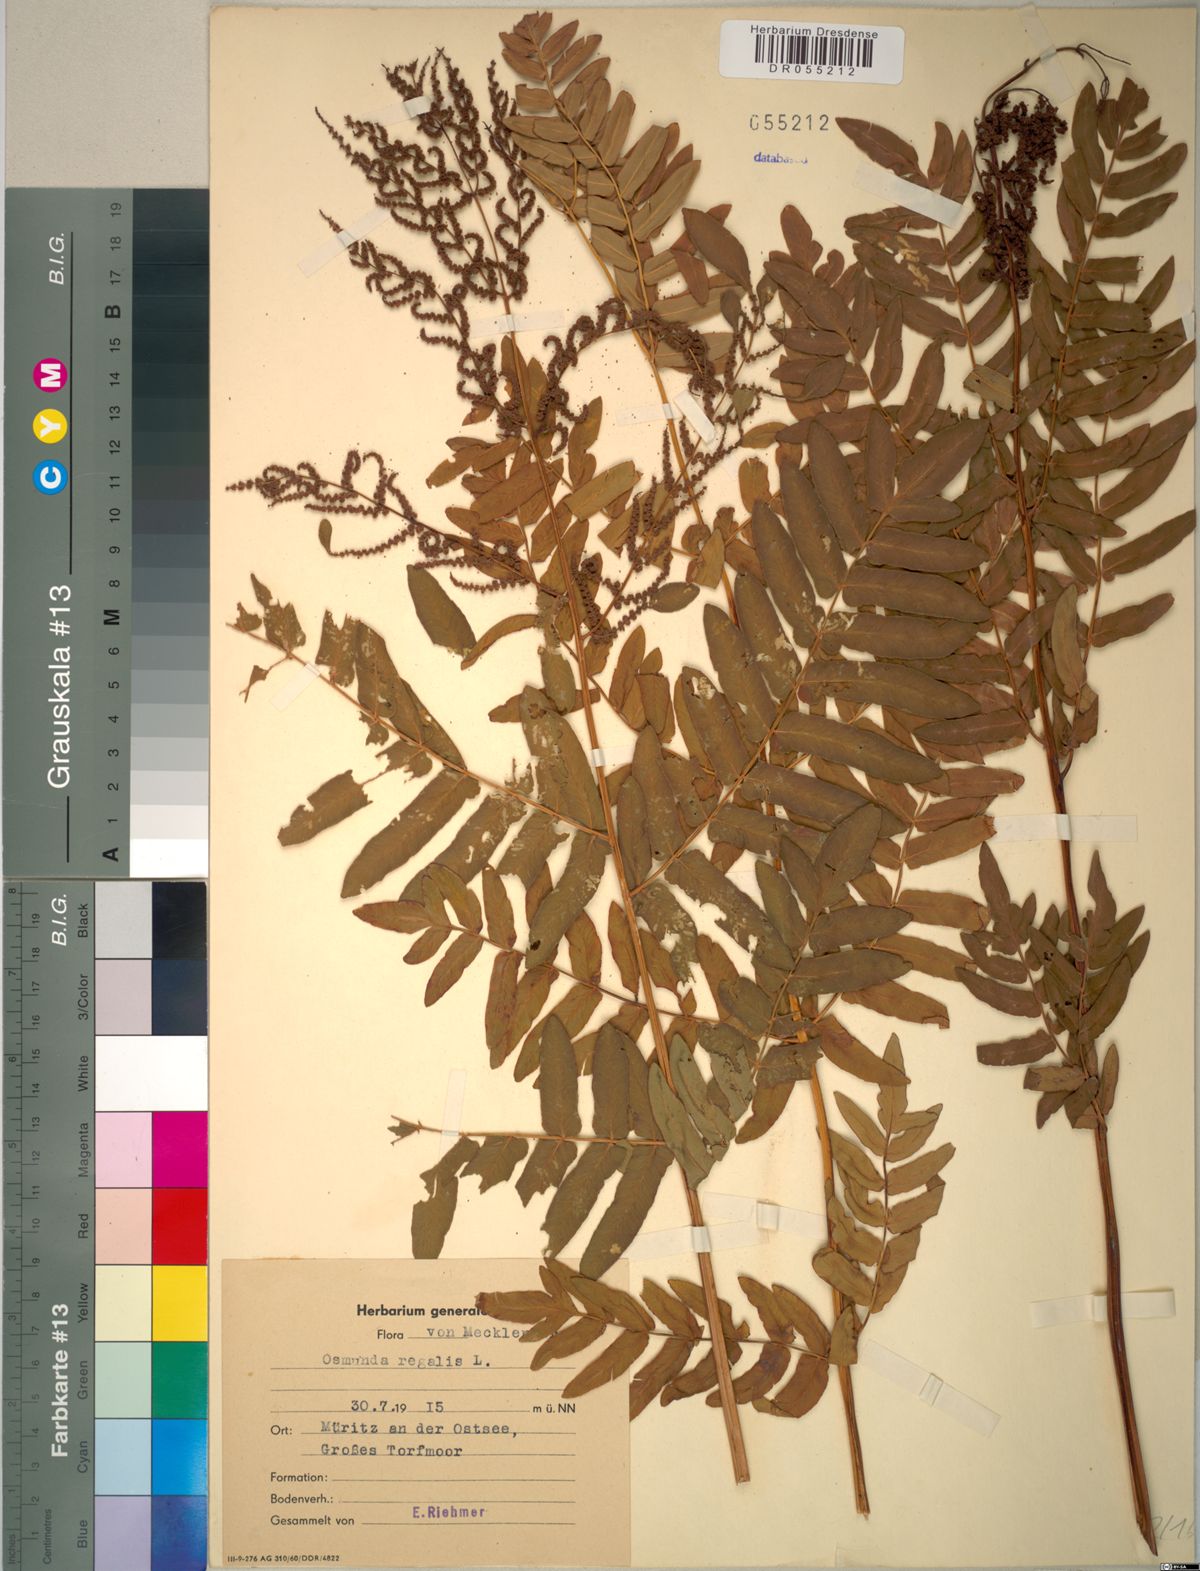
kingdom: Plantae
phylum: Tracheophyta
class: Polypodiopsida
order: Osmundales
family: Osmundaceae
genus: Osmunda
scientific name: Osmunda regalis
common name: Royal fern
